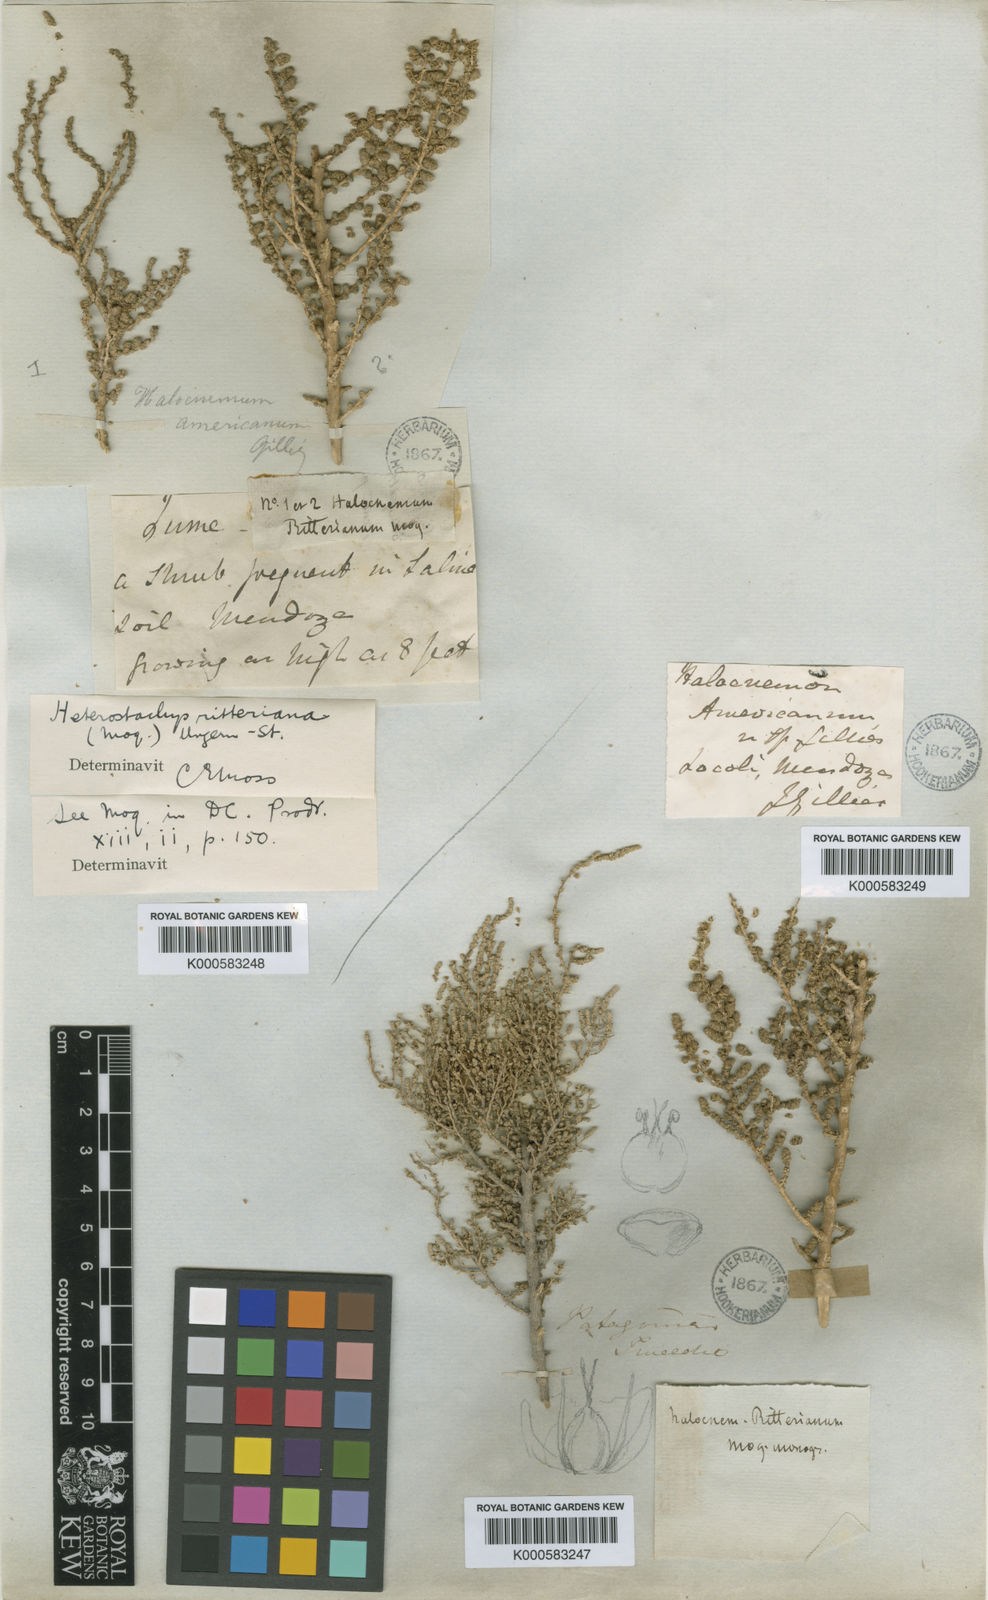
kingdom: Plantae
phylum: Tracheophyta
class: Magnoliopsida
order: Caryophyllales
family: Amaranthaceae
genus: Heterostachys
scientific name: Heterostachys ritteriana
